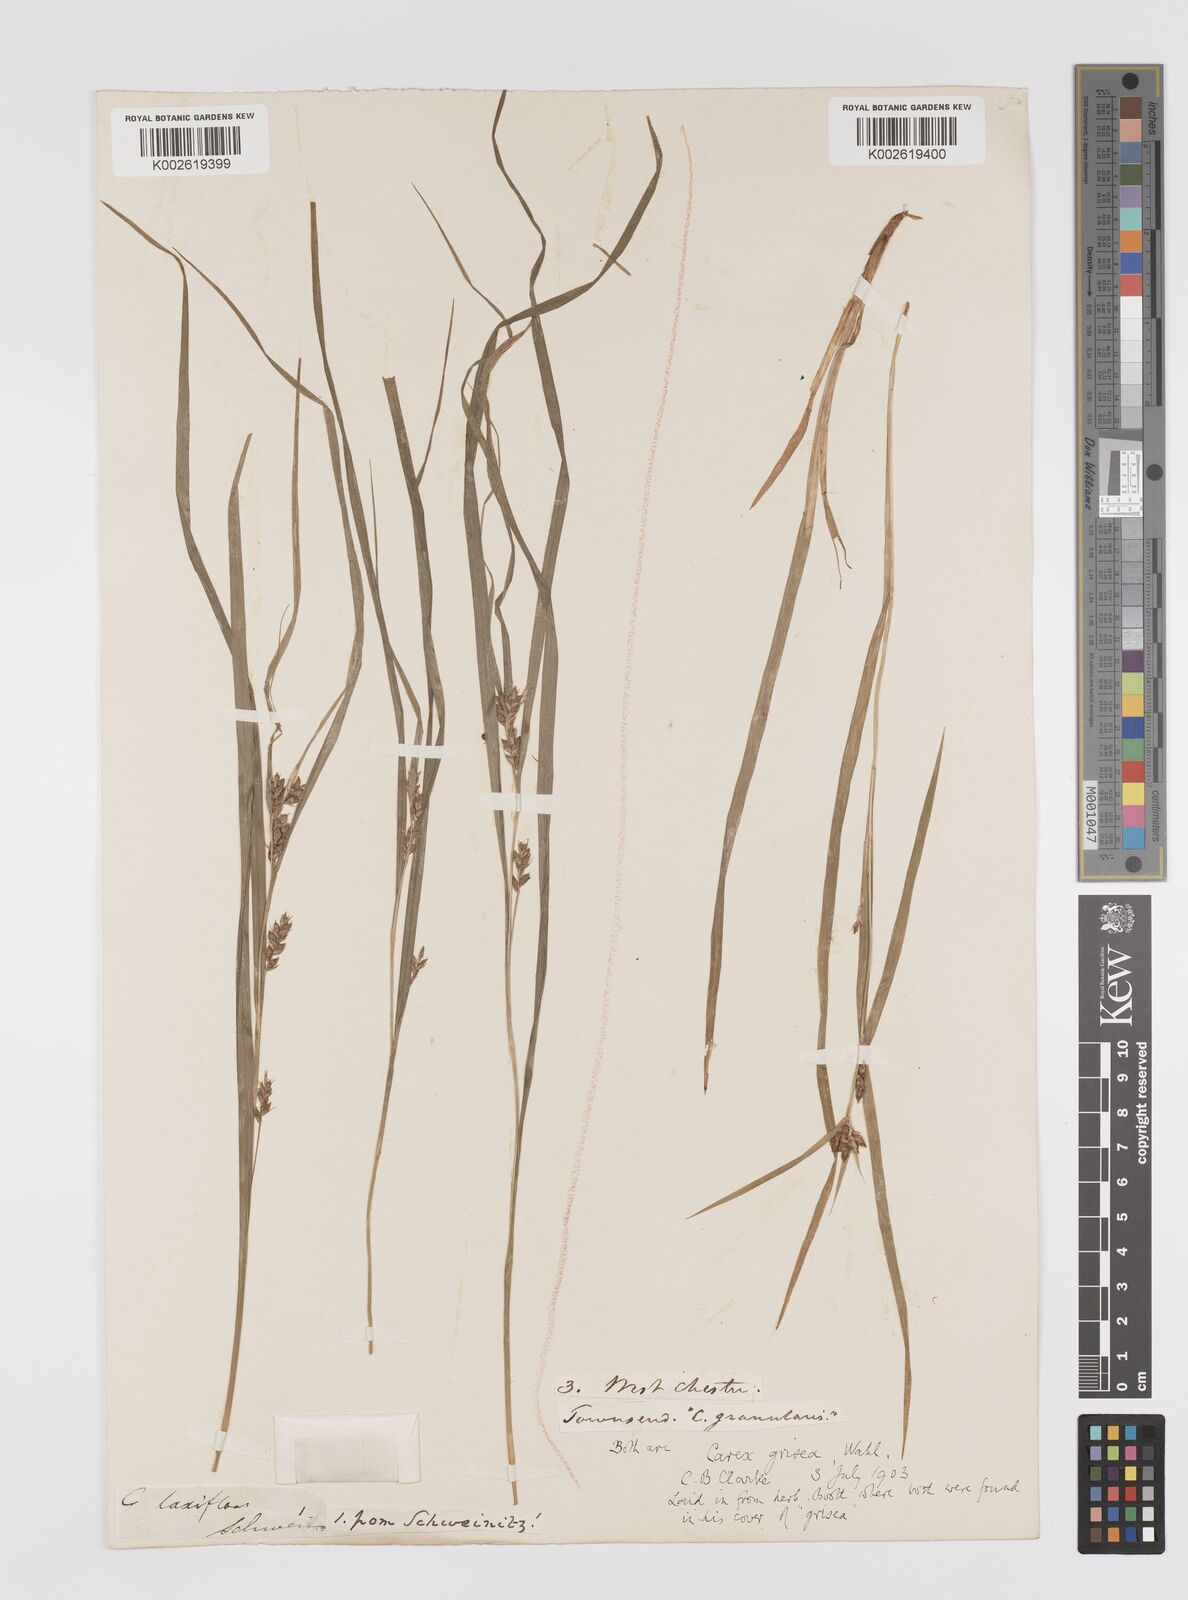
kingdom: Plantae
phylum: Tracheophyta
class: Liliopsida
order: Poales
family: Cyperaceae
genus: Carex
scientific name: Carex grisea
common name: Eastern narrow-leaved sedge
